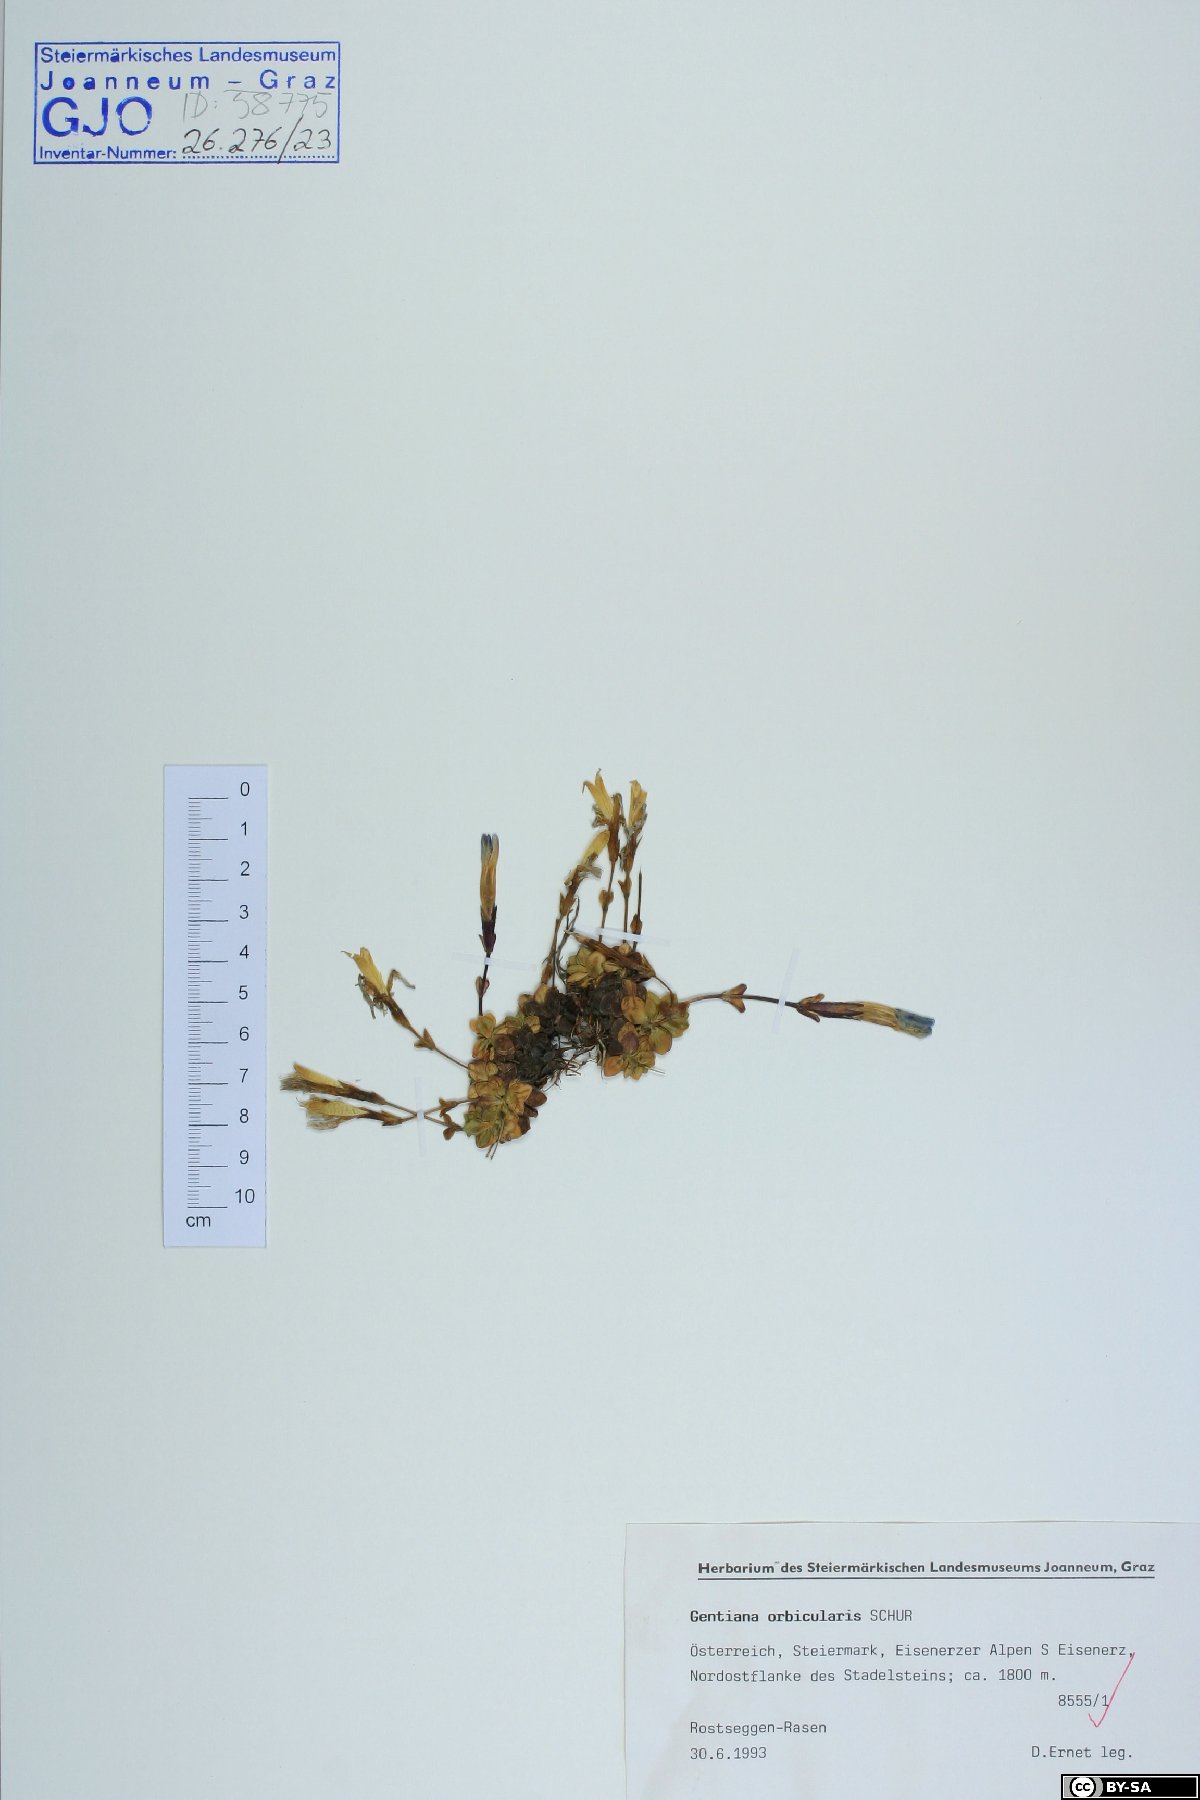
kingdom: Plantae
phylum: Tracheophyta
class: Magnoliopsida
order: Gentianales
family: Gentianaceae
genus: Gentiana
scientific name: Gentiana orbicularis
